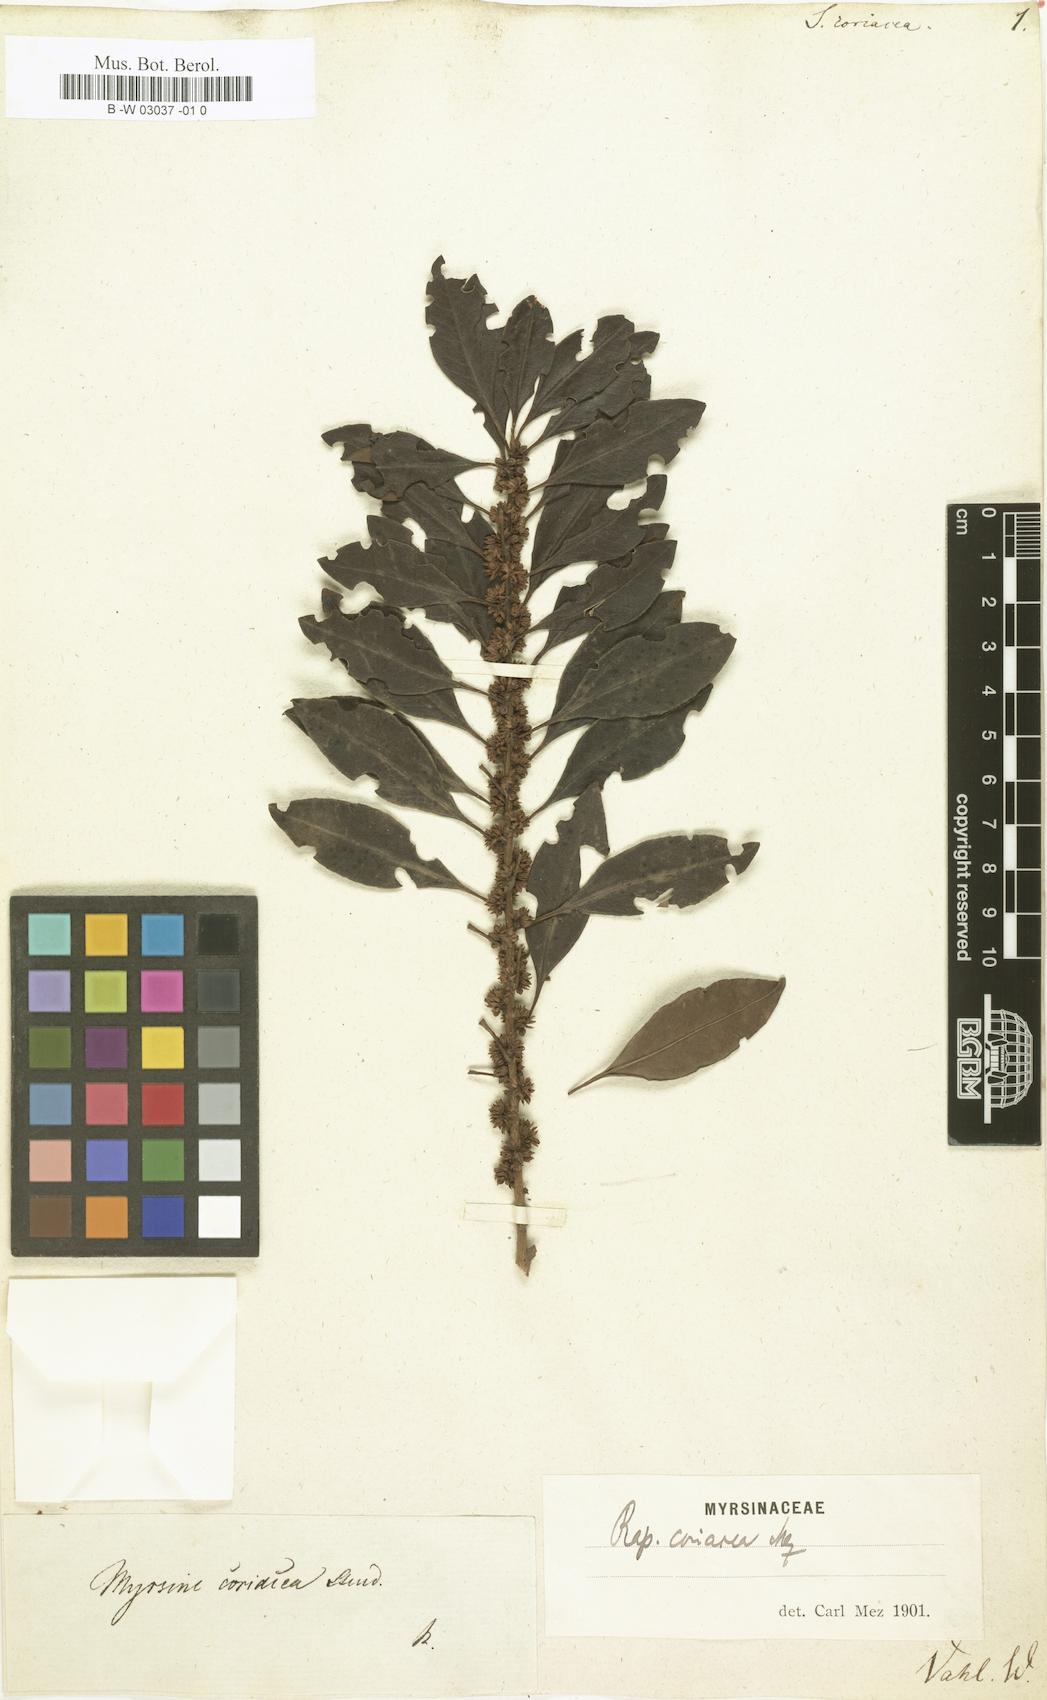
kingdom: Plantae
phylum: Tracheophyta
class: Magnoliopsida
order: Ericales
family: Primulaceae
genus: Myrsine
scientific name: Myrsine coriacea
